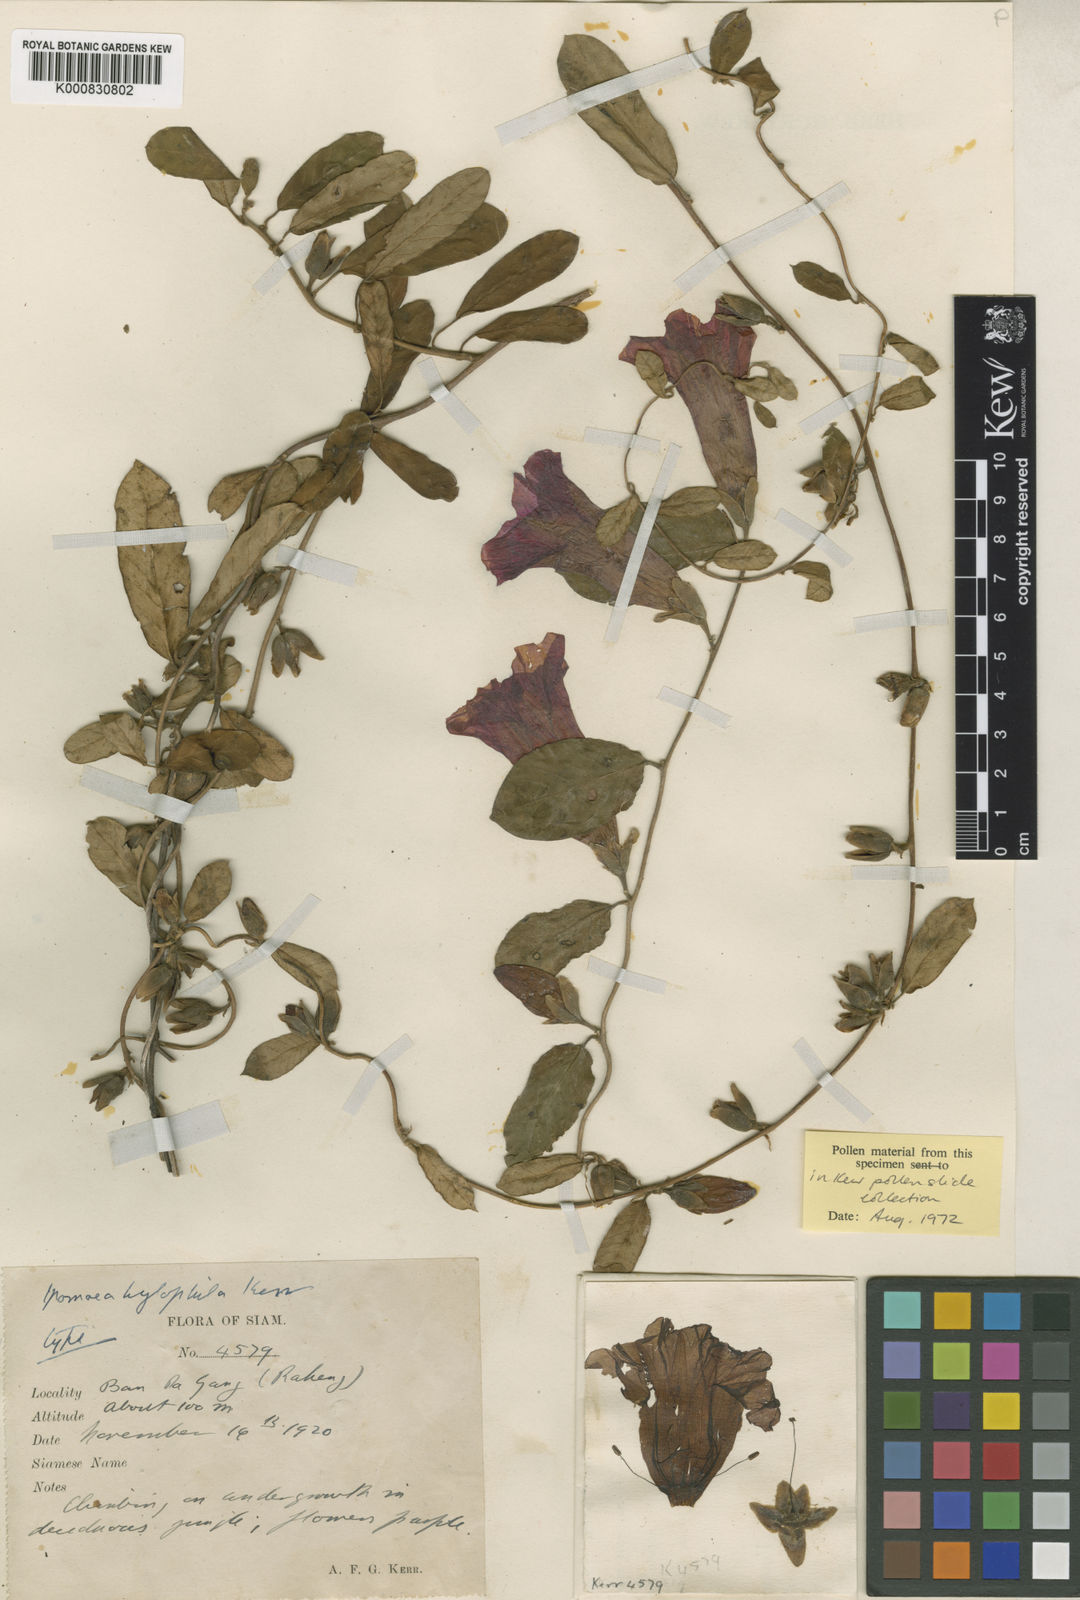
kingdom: Plantae
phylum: Tracheophyta
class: Magnoliopsida
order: Solanales
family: Convolvulaceae
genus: Argyreia
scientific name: Argyreia hylophila
